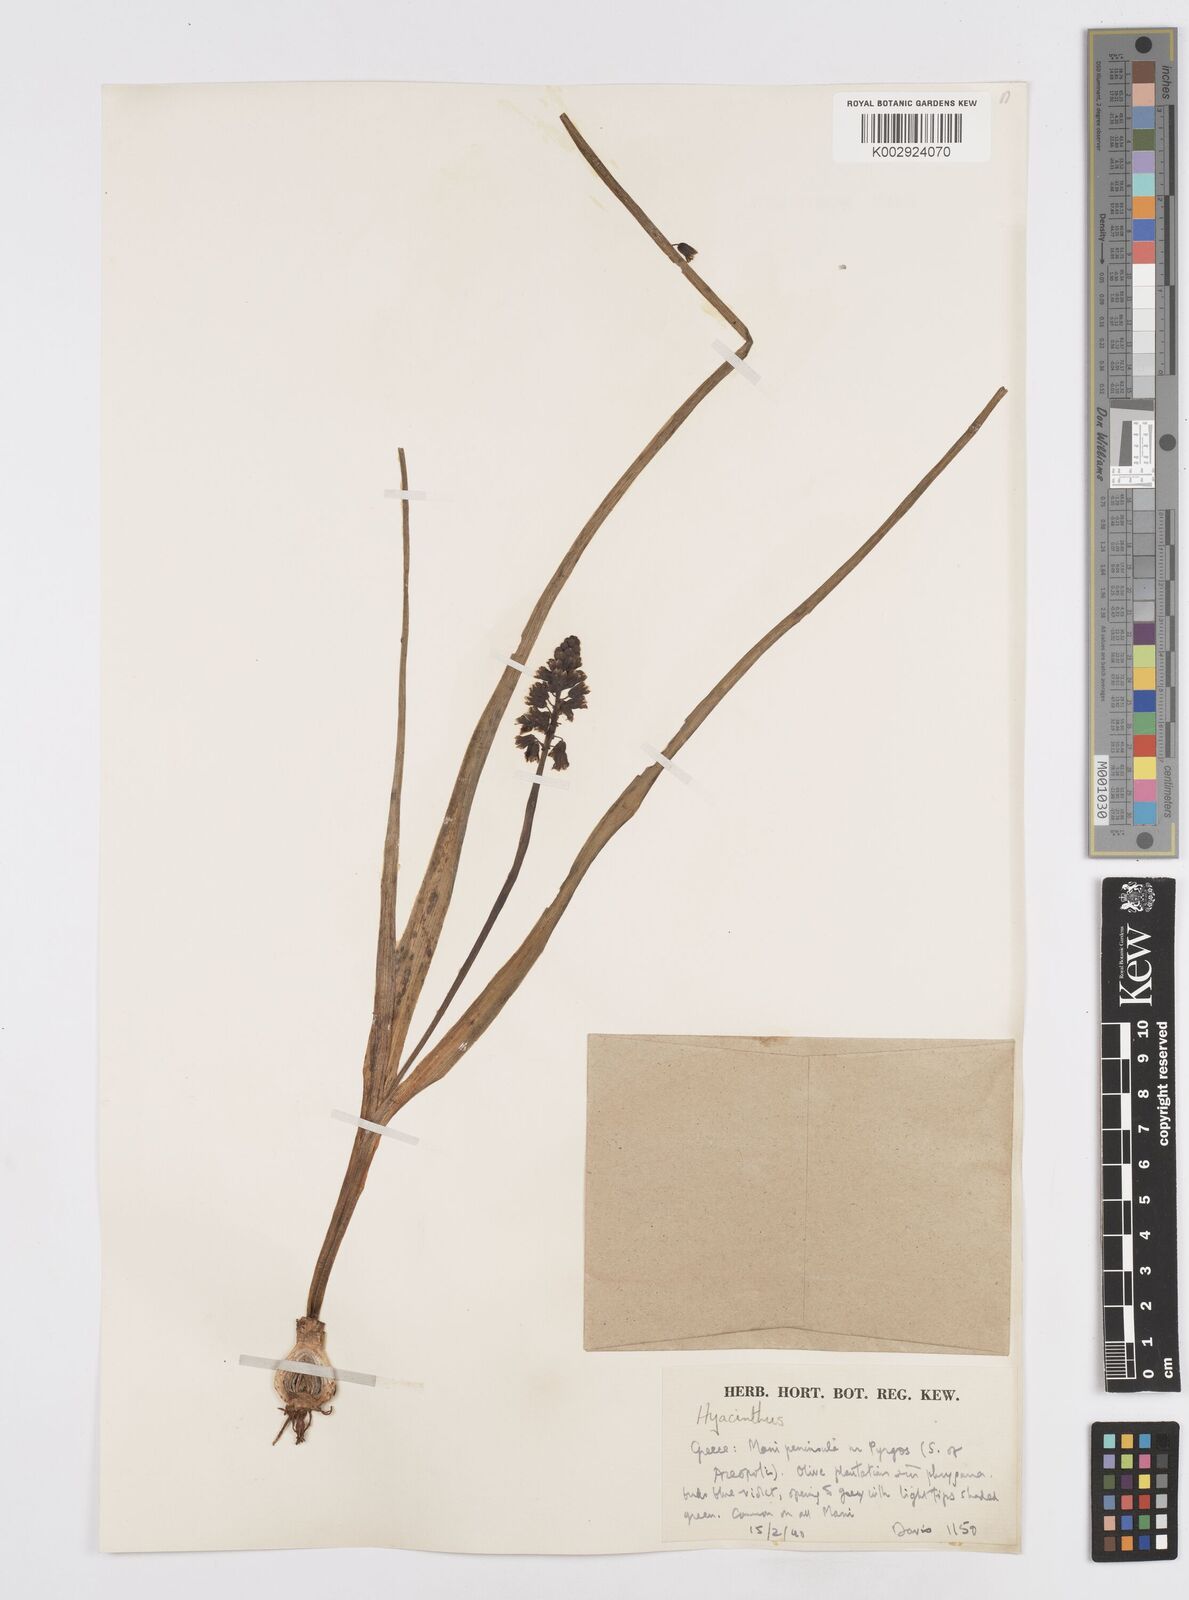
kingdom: Plantae
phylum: Tracheophyta
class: Liliopsida
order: Asparagales
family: Asparagaceae
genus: Bellevalia
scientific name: Bellevalia dubia
